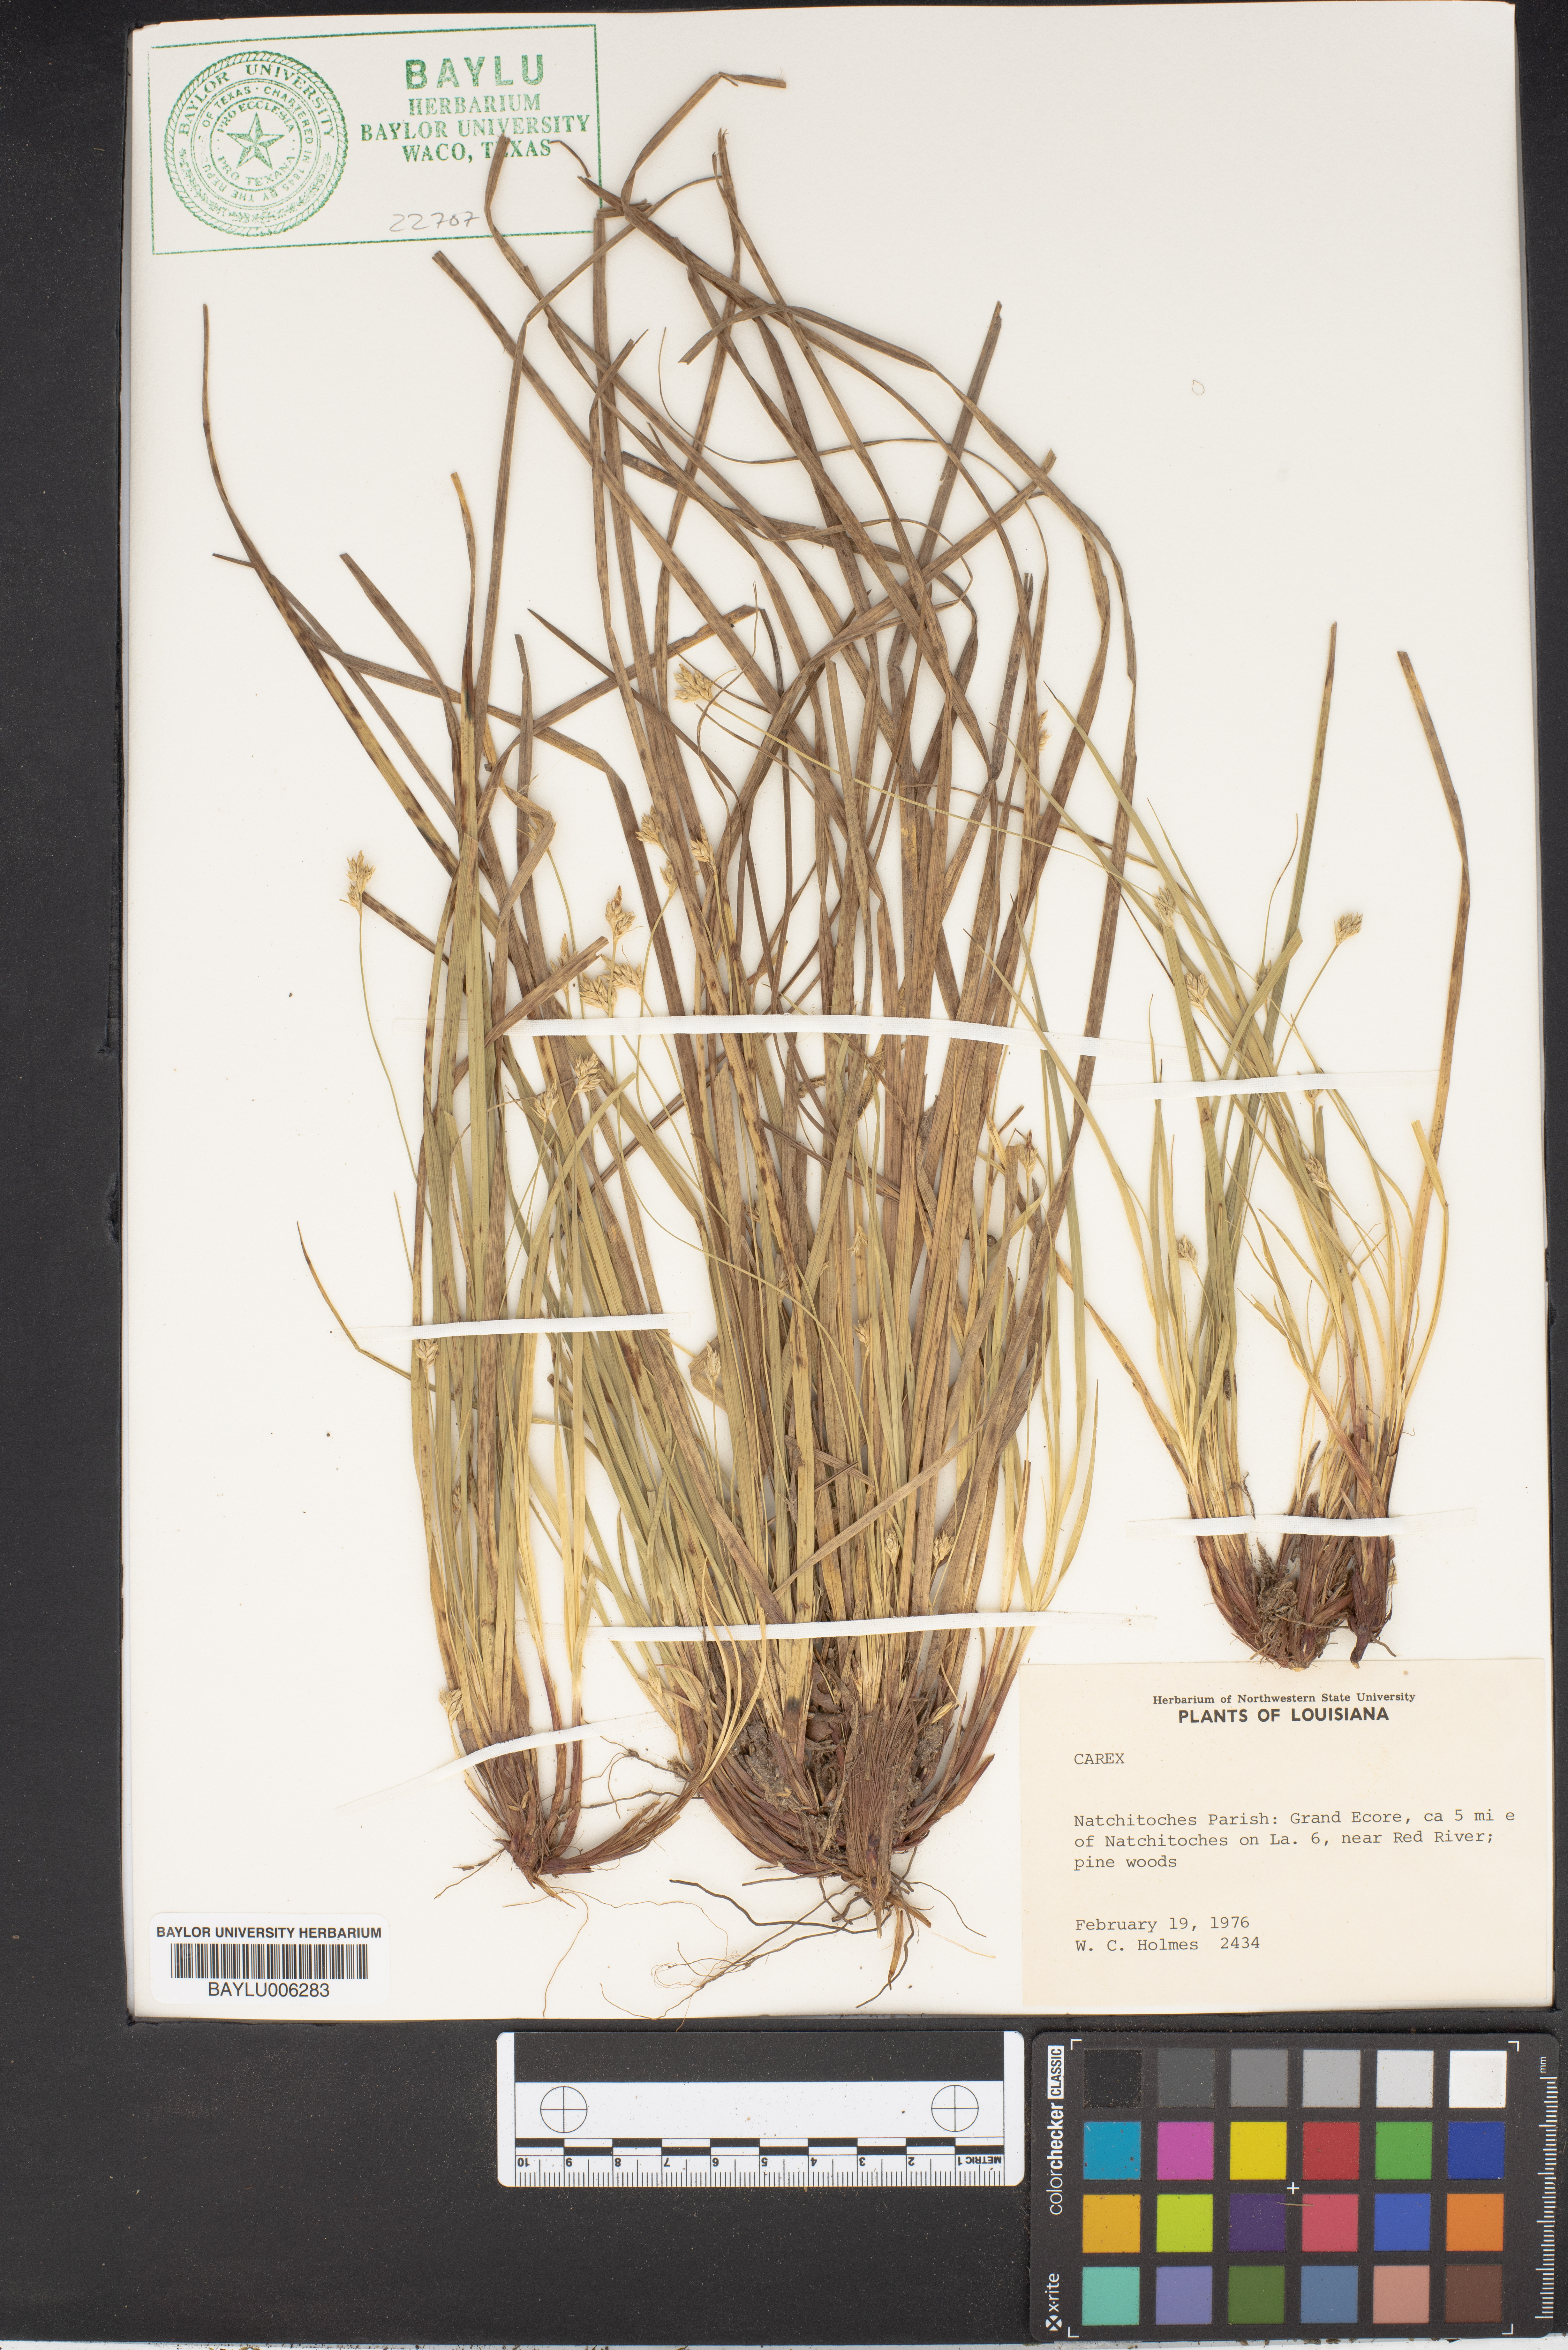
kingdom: Plantae
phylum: Tracheophyta
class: Liliopsida
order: Poales
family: Cyperaceae
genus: Carex
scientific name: Carex
